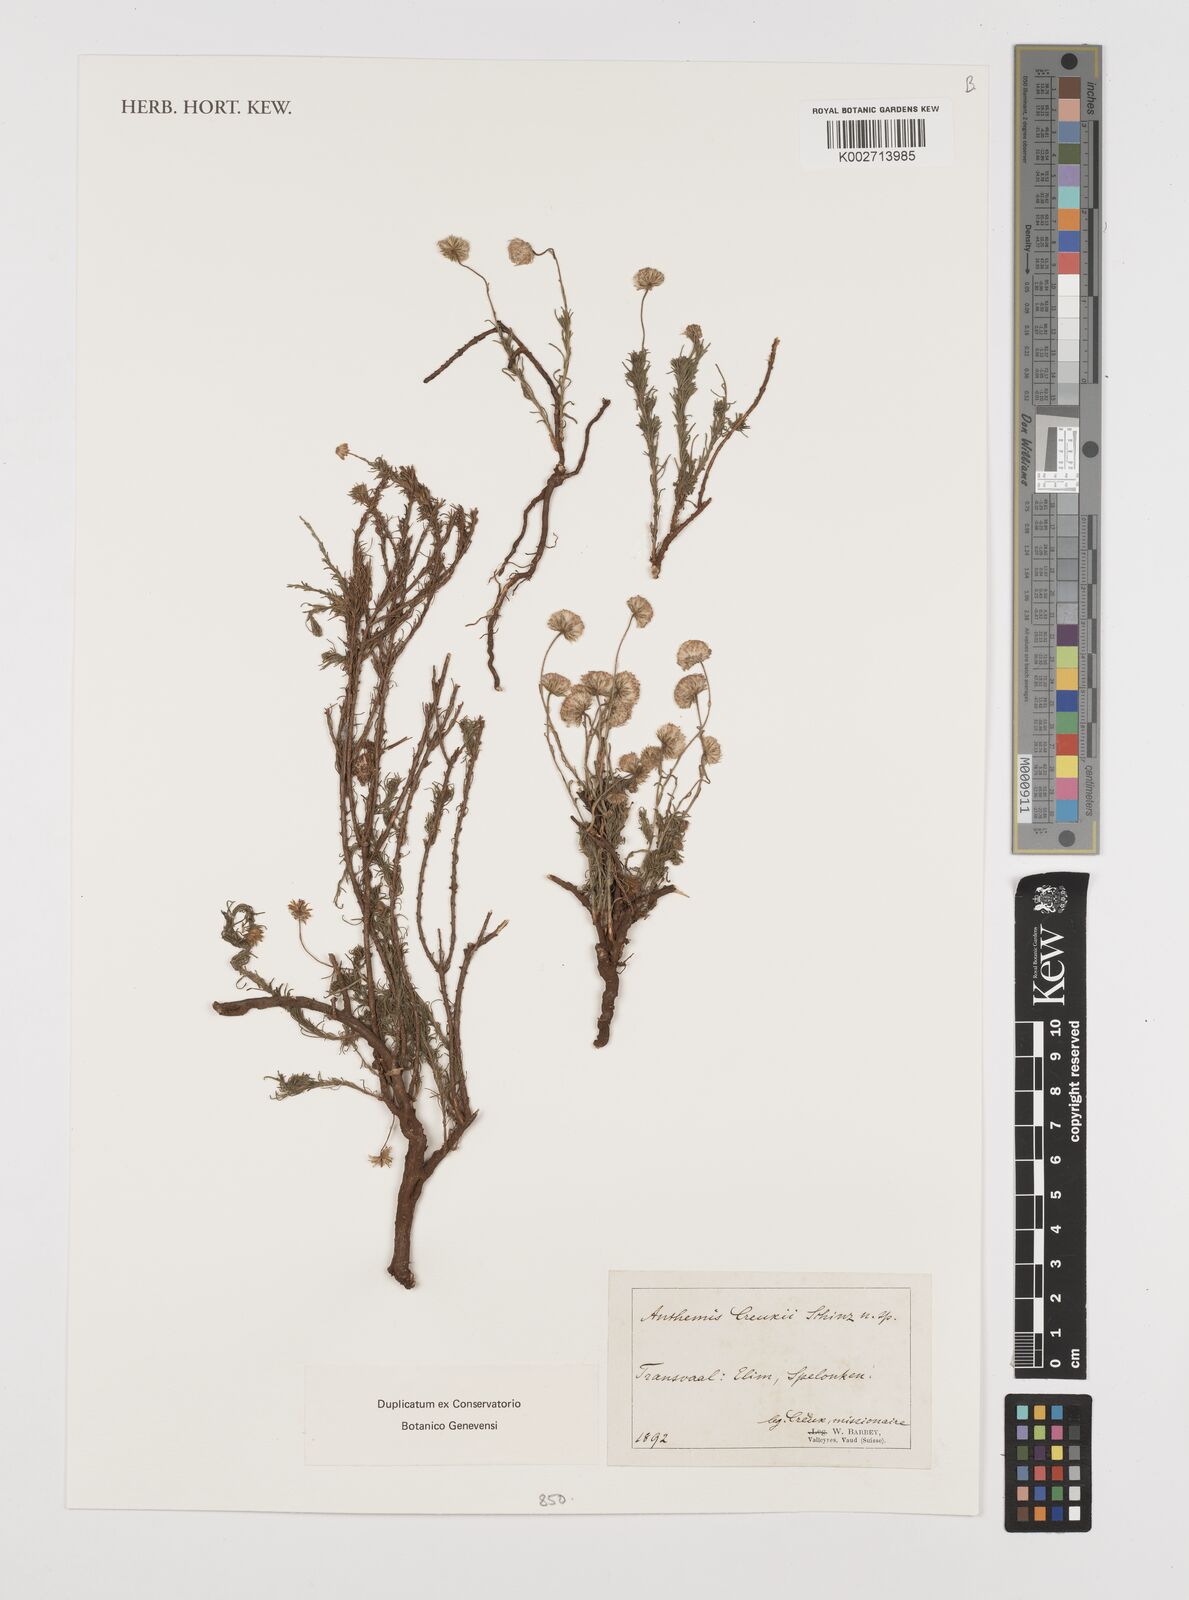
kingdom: Plantae
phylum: Tracheophyta
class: Magnoliopsida
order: Asterales
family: Asteraceae
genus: Anthemis
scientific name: Anthemis
